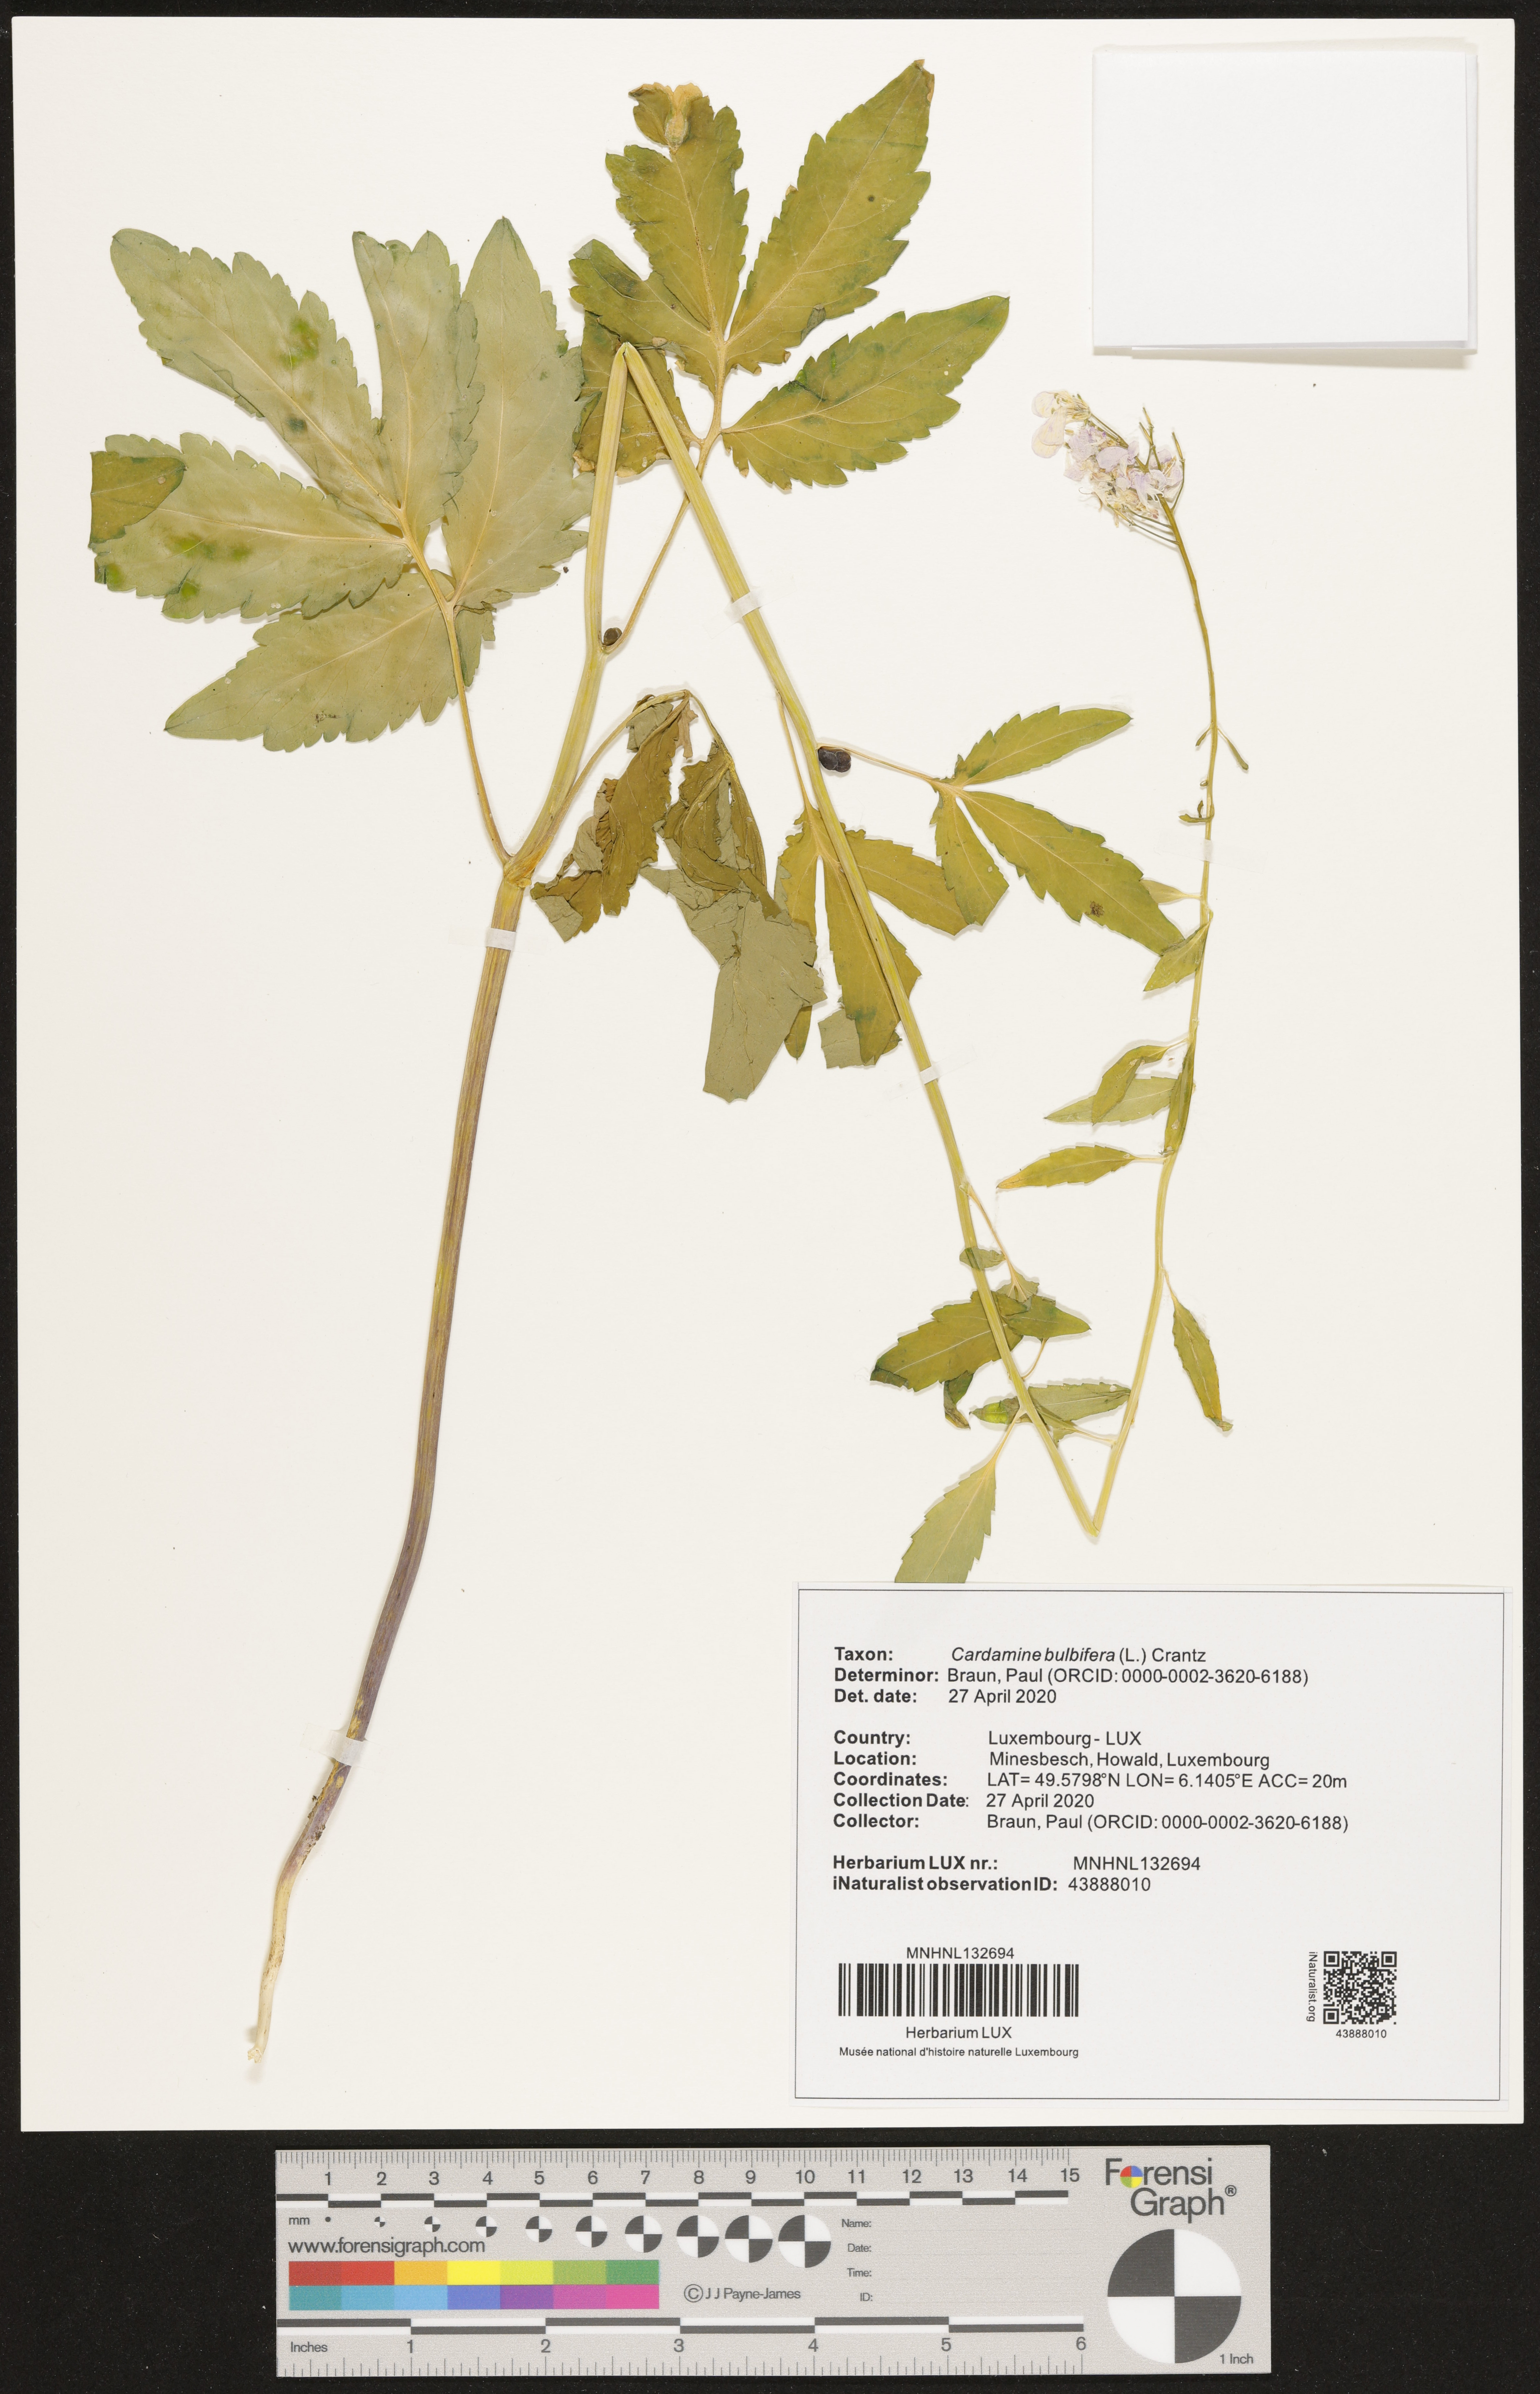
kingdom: Plantae
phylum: Tracheophyta
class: Magnoliopsida
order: Brassicales
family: Brassicaceae
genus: Cardamine
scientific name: Cardamine bulbifera
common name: Coralroot bittercress
